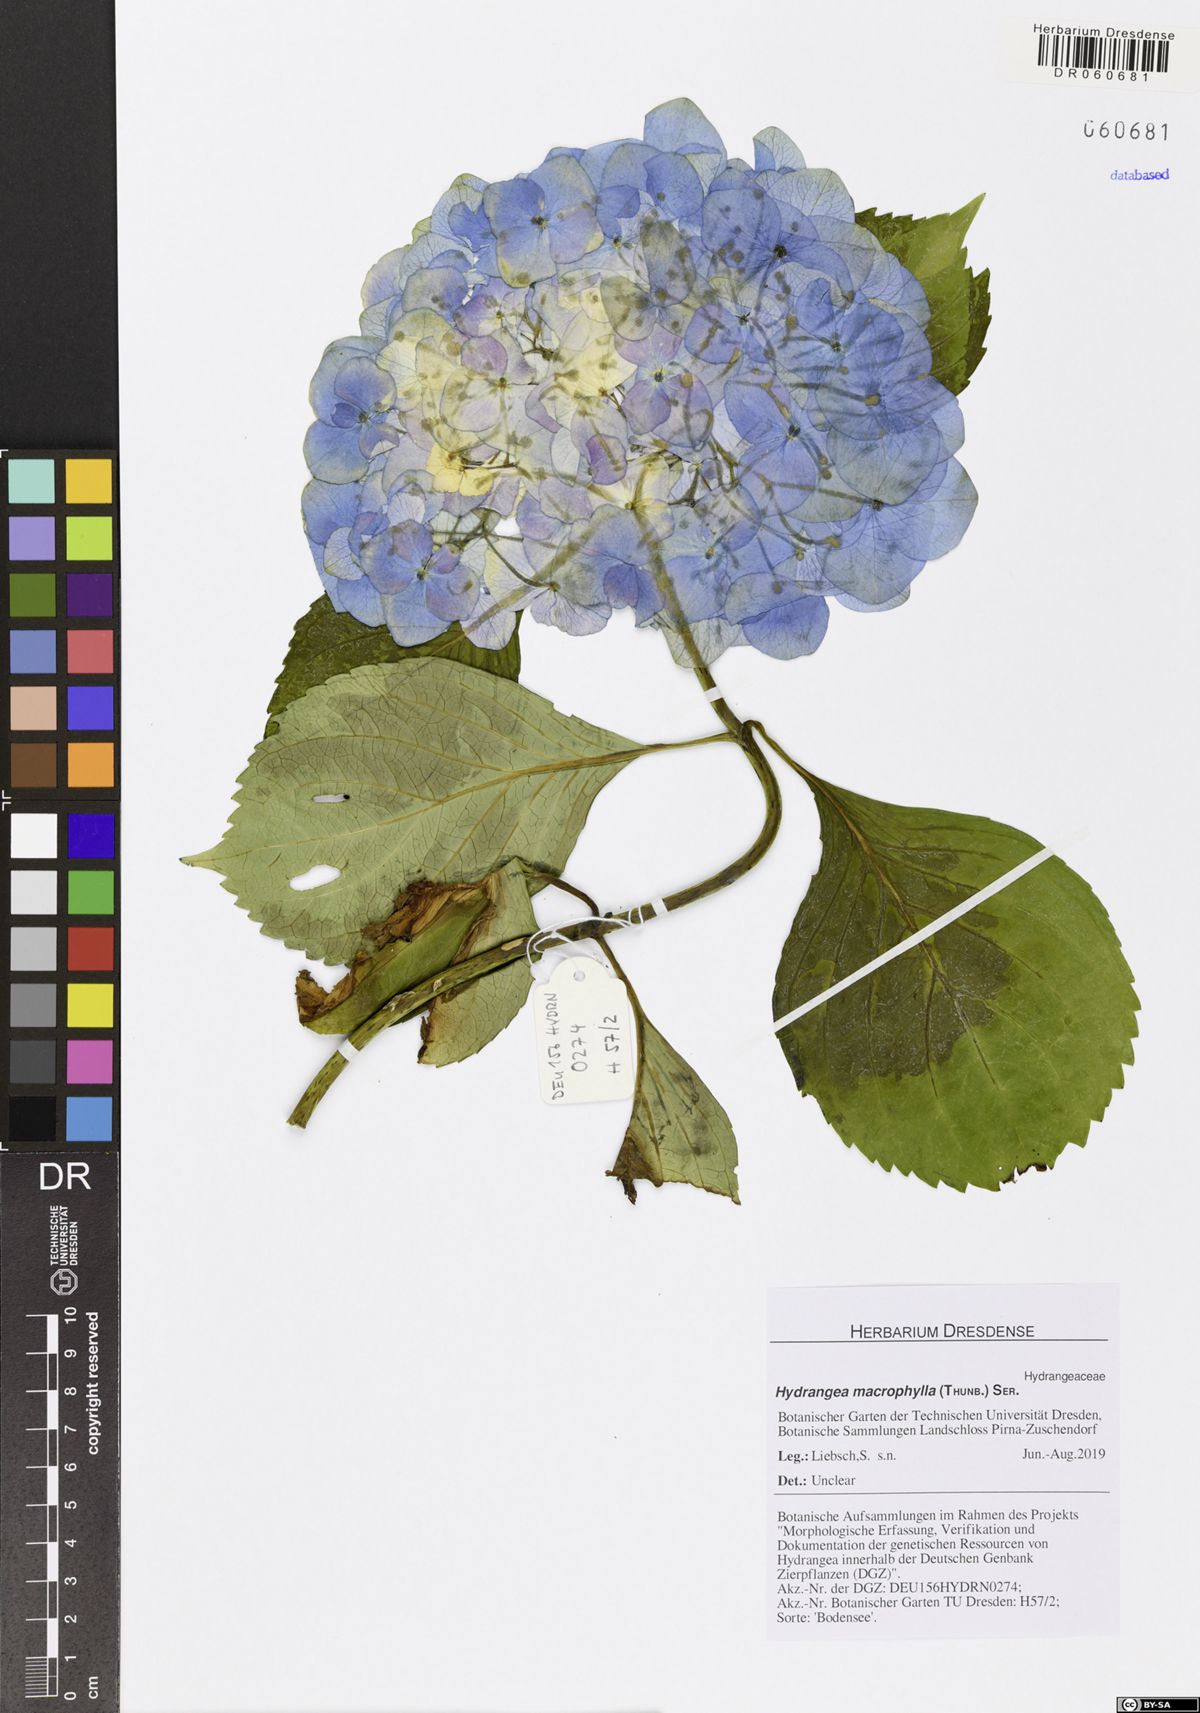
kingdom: Plantae
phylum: Tracheophyta
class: Magnoliopsida
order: Cornales
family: Hydrangeaceae
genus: Hydrangea
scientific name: Hydrangea macrophylla
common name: Hydrangea
